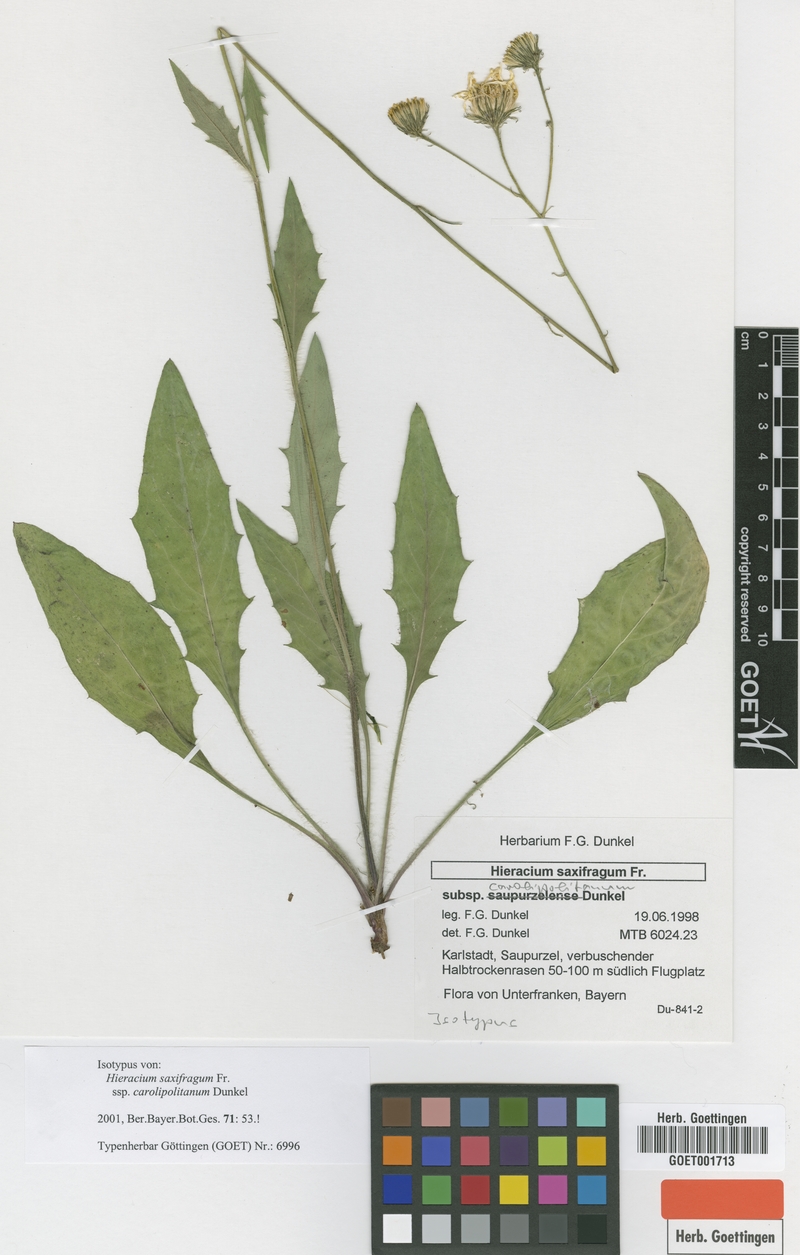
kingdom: Plantae
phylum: Tracheophyta
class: Magnoliopsida
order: Asterales
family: Asteraceae
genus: Hieracium
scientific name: Hieracium saxifragum
